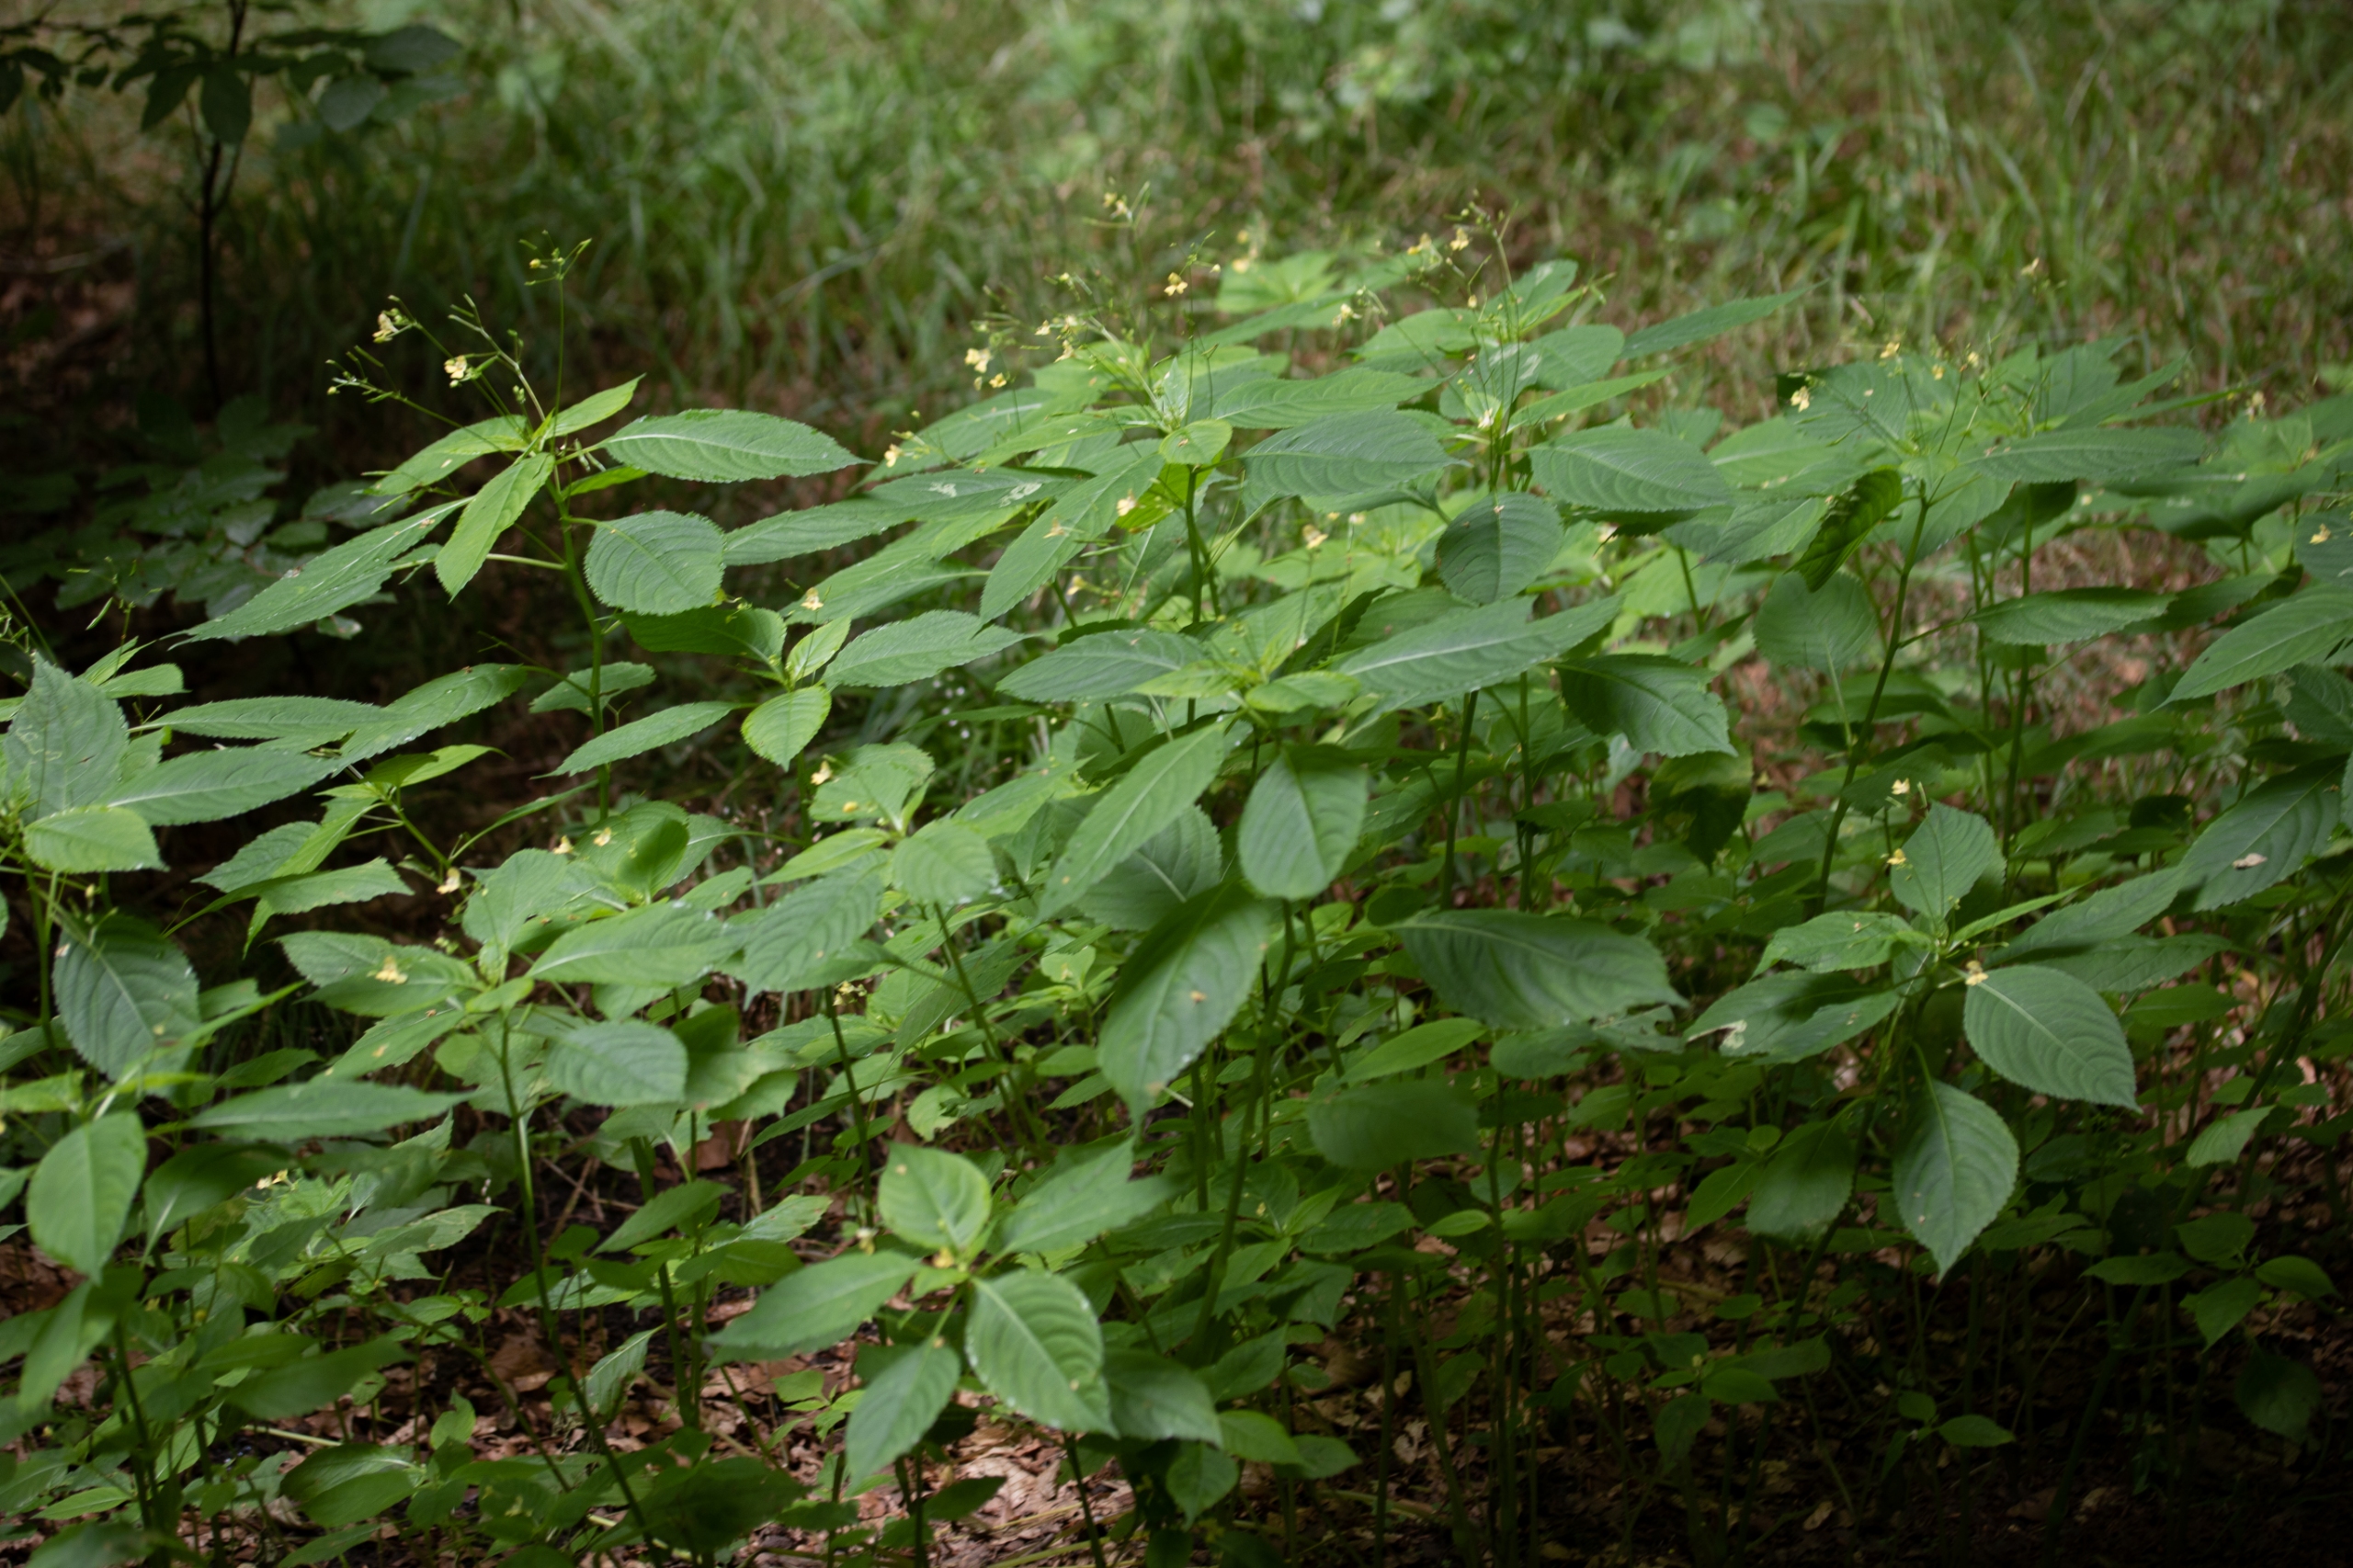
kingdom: Plantae
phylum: Tracheophyta
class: Magnoliopsida
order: Ericales
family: Balsaminaceae
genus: Impatiens
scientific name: Impatiens parviflora
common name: Småblomstret balsamin
